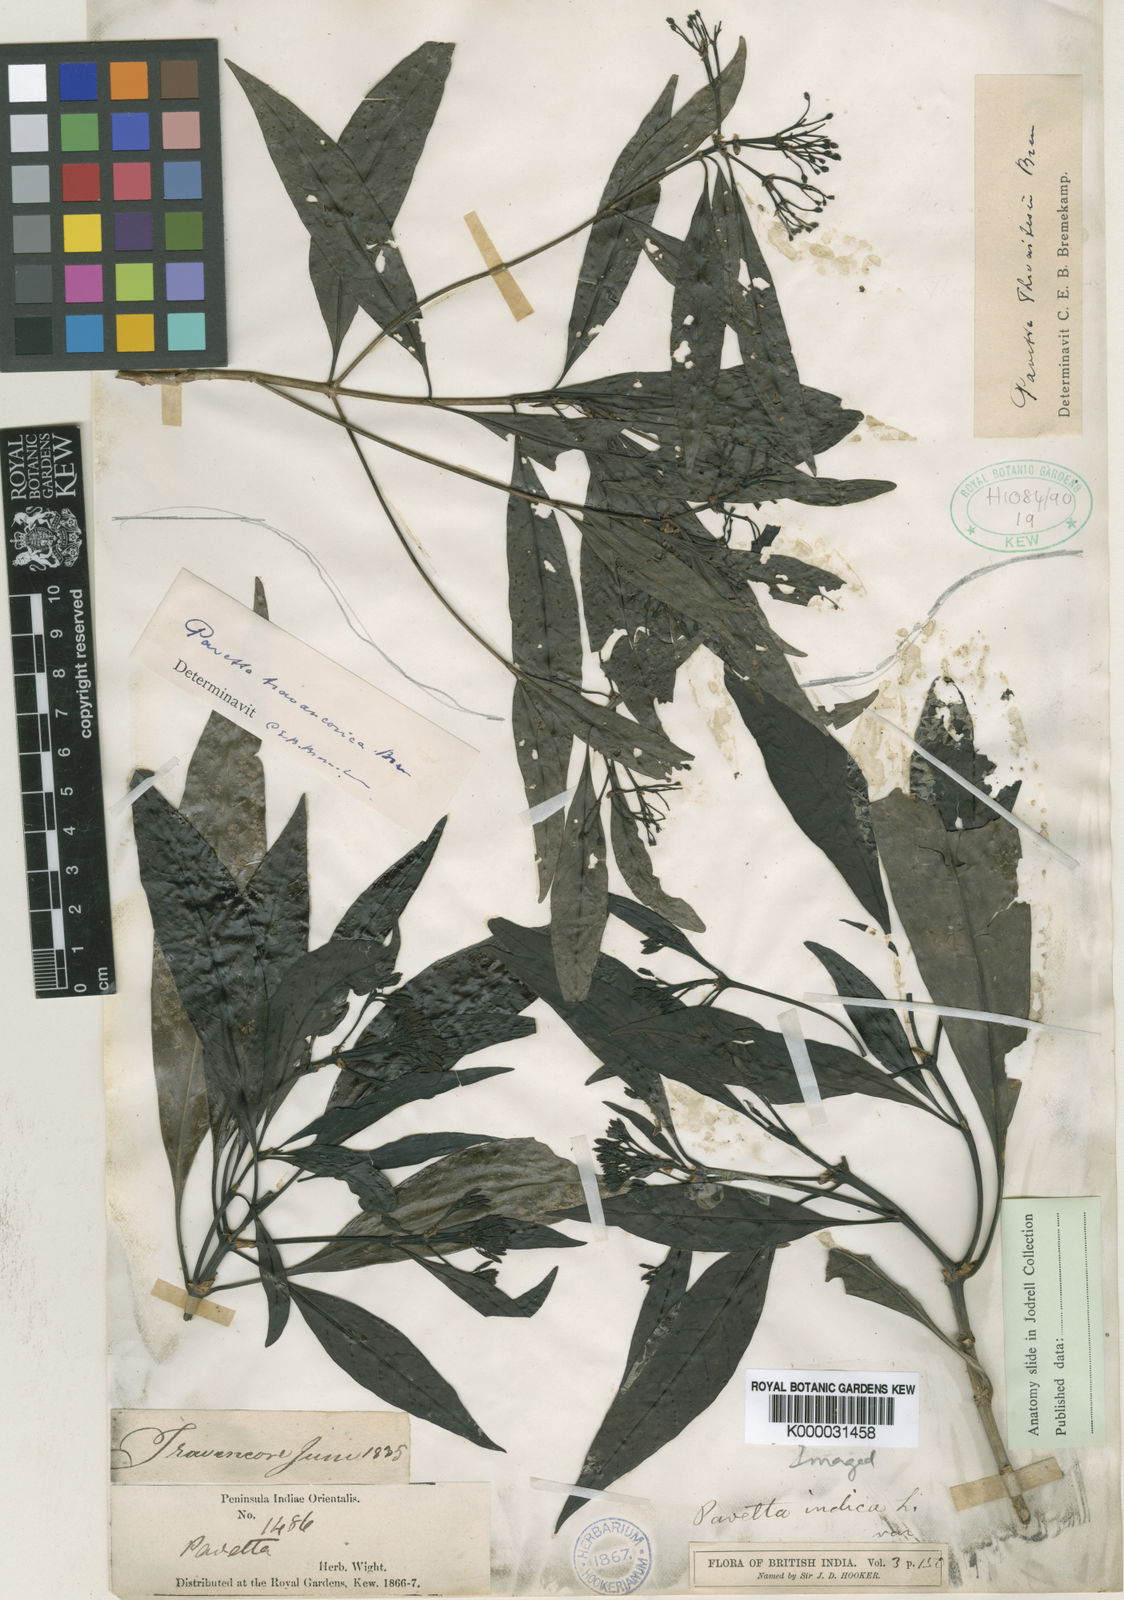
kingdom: Plantae
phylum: Tracheophyta
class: Magnoliopsida
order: Gentianales
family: Rubiaceae
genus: Pavetta
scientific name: Pavetta travancorica
